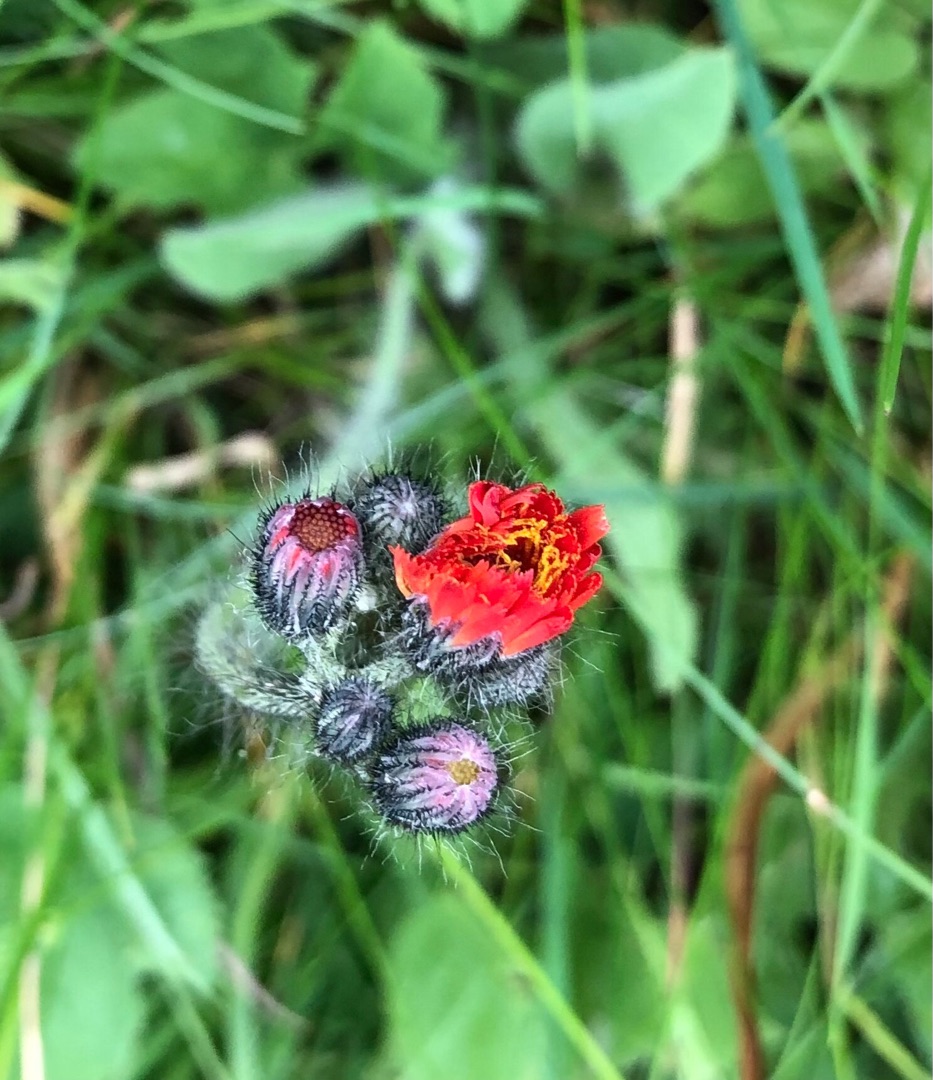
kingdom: Plantae
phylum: Tracheophyta
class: Magnoliopsida
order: Asterales
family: Asteraceae
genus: Pilosella
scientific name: Pilosella aurantiaca
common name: Pomerans-høgeurt
